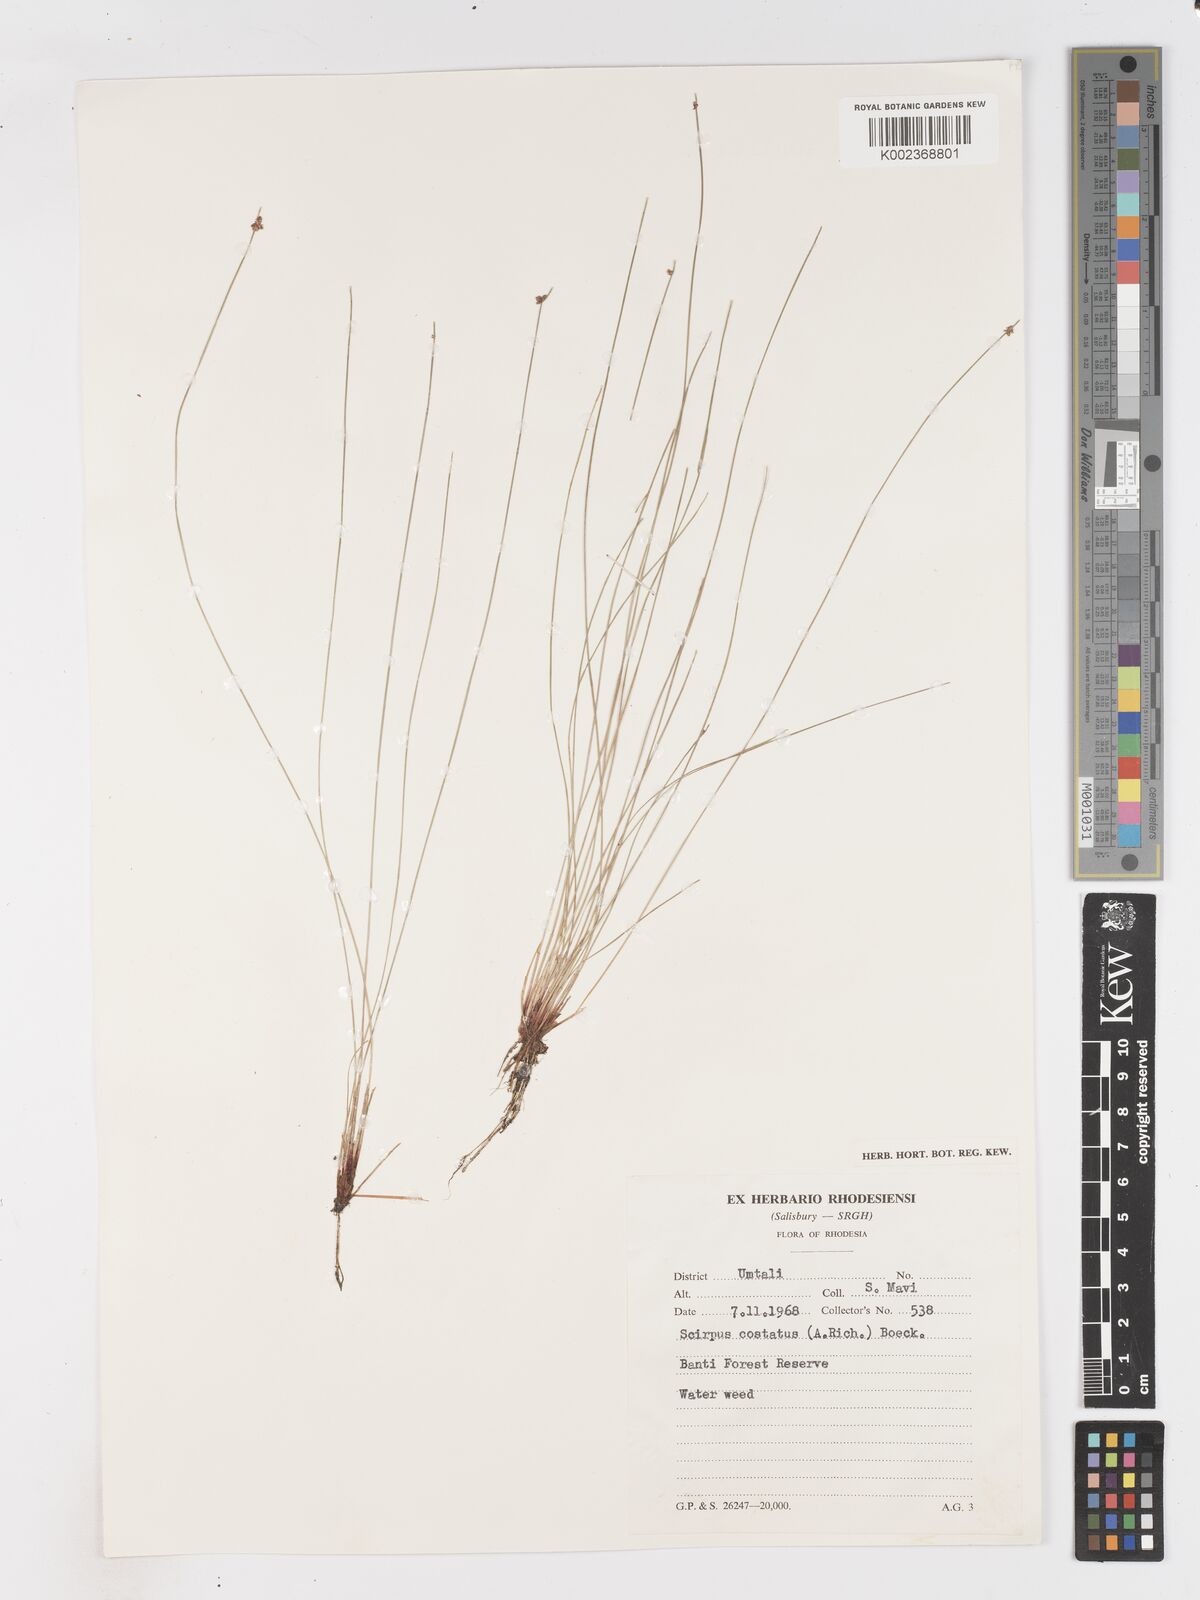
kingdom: Plantae
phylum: Tracheophyta
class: Liliopsida
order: Poales
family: Cyperaceae
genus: Isolepis
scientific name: Isolepis costata
